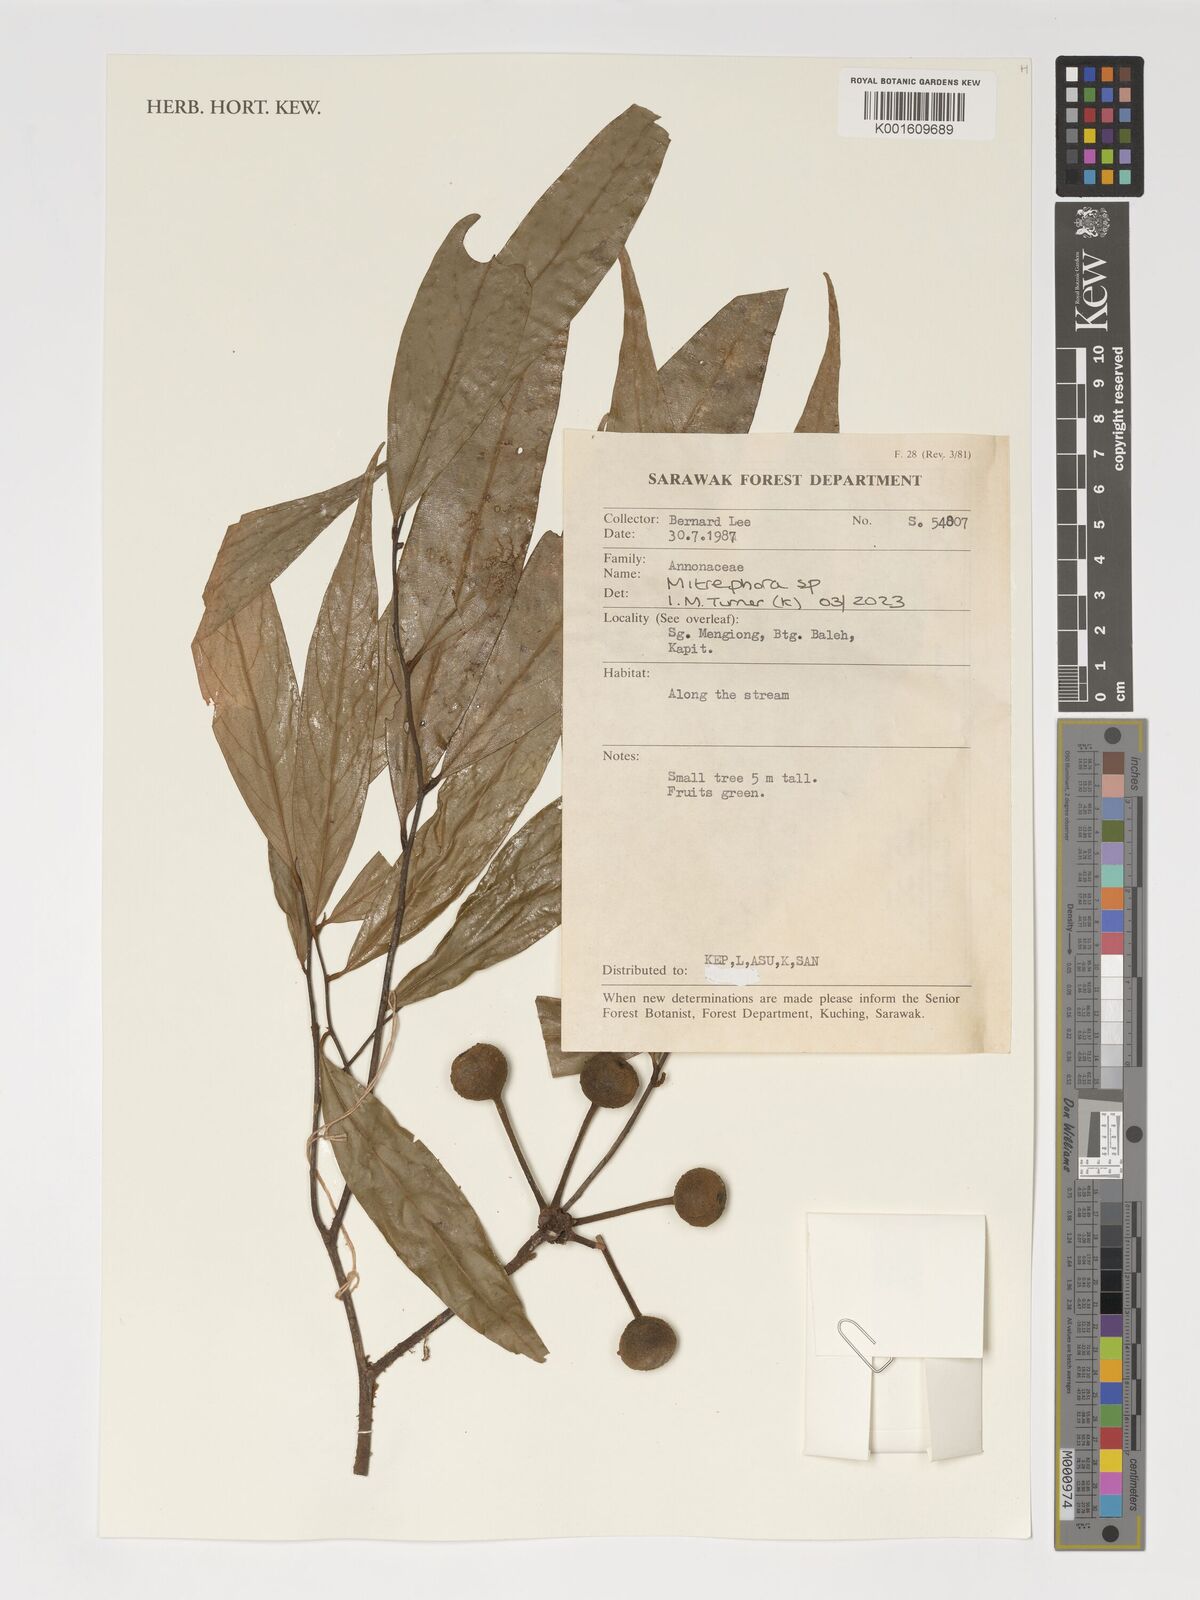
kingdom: Plantae
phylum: Tracheophyta
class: Magnoliopsida
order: Magnoliales
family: Annonaceae
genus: Mitrephora
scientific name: Mitrephora
